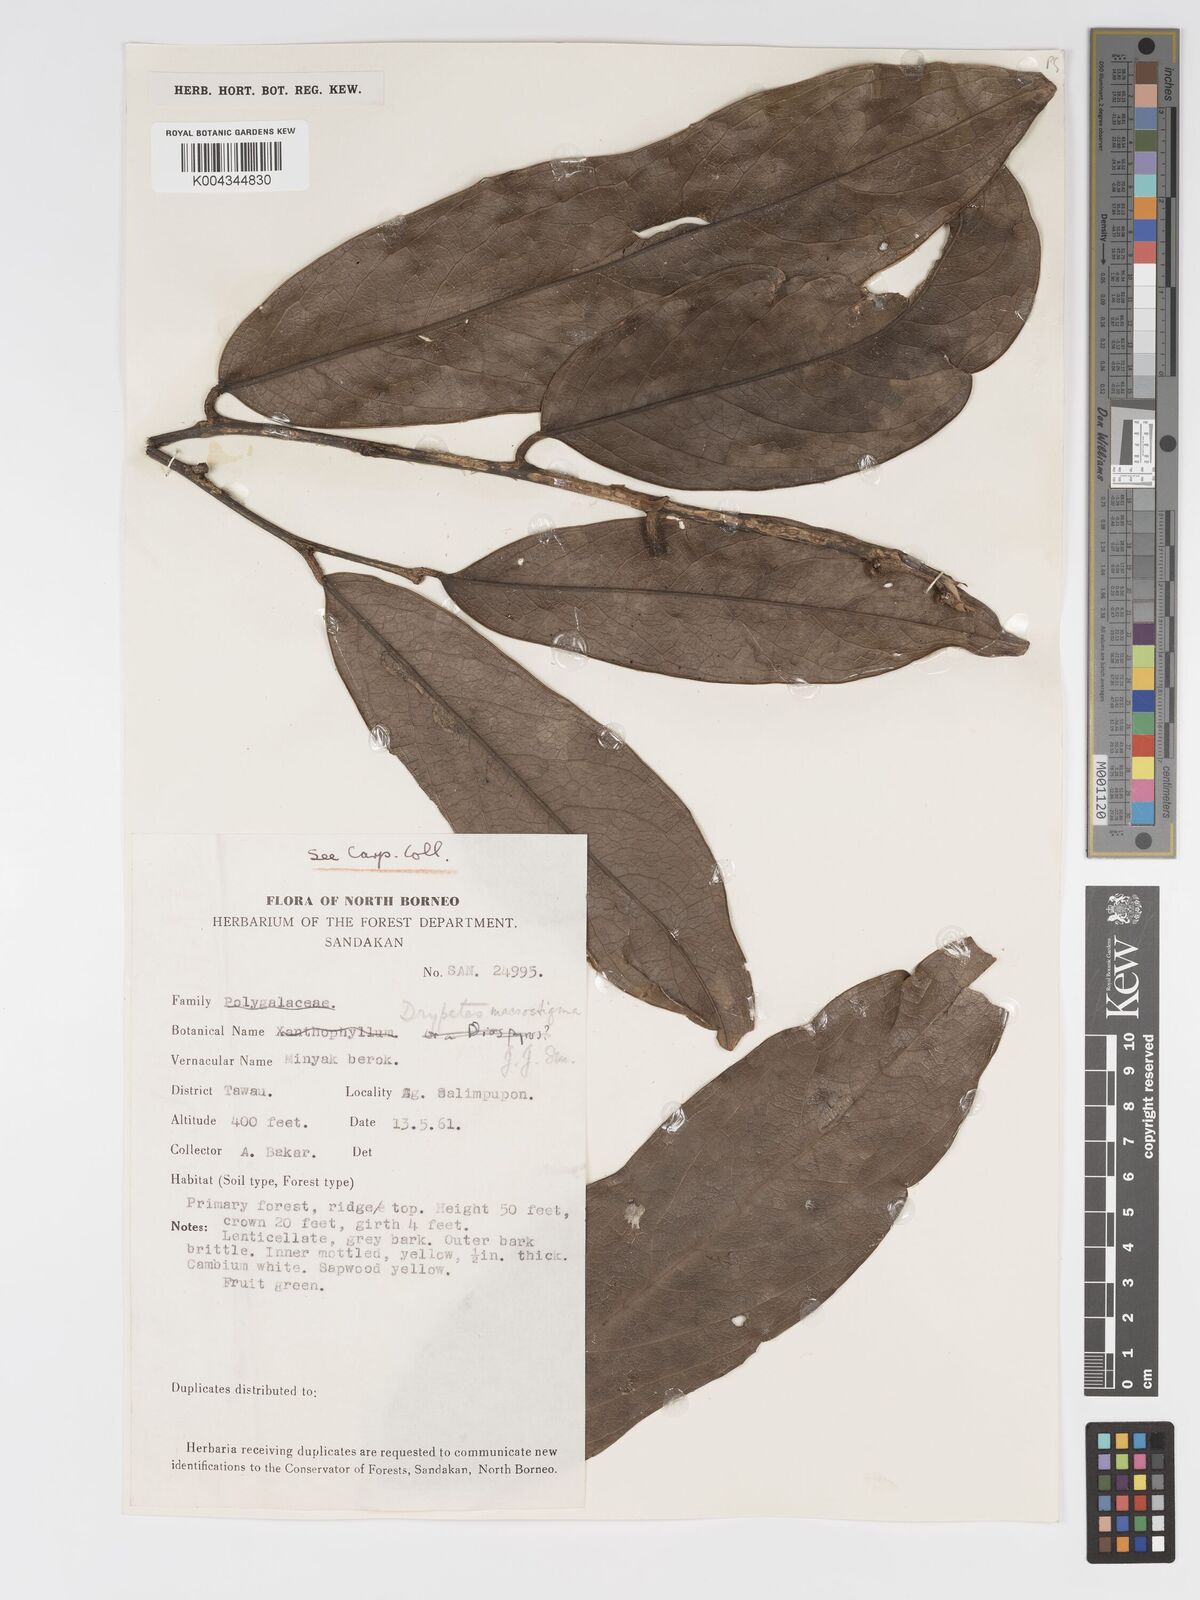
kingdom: Plantae
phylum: Tracheophyta
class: Magnoliopsida
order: Malpighiales
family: Putranjivaceae
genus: Drypetes
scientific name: Drypetes macrostigma
